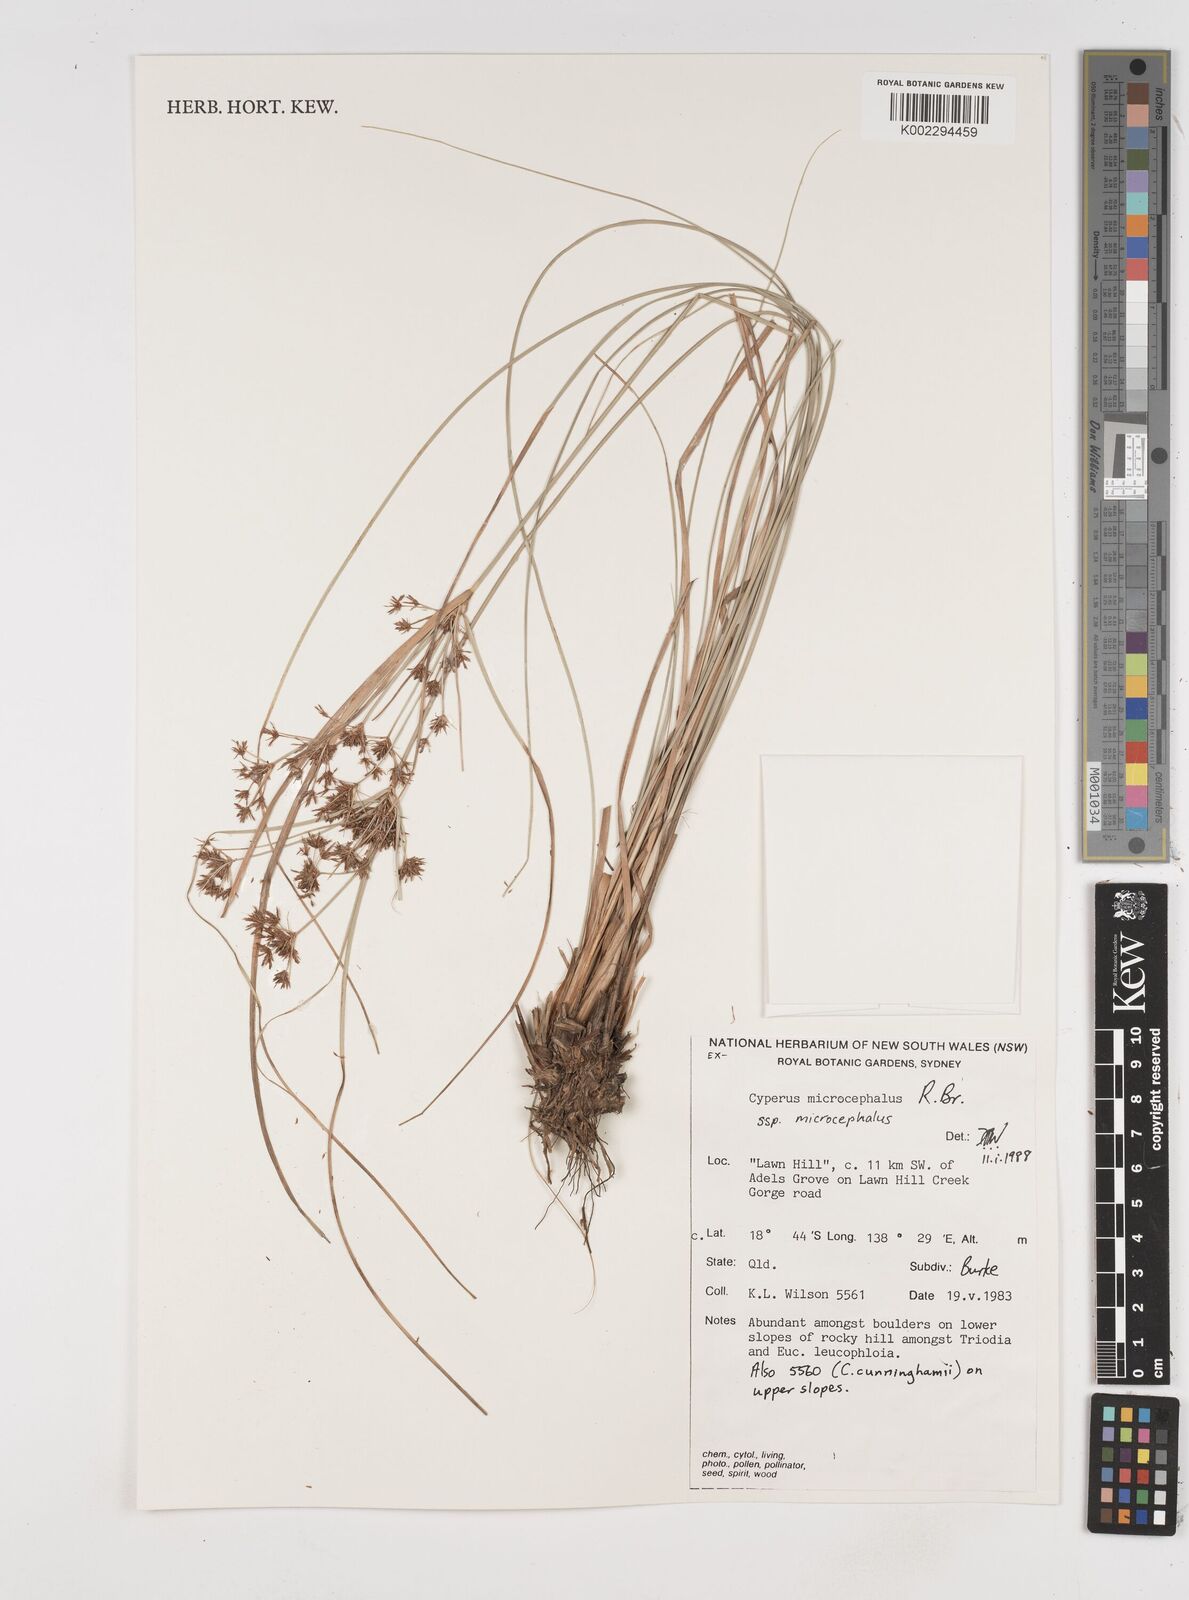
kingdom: Plantae
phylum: Tracheophyta
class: Liliopsida
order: Poales
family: Cyperaceae
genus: Cyperus
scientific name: Cyperus microcephalus
